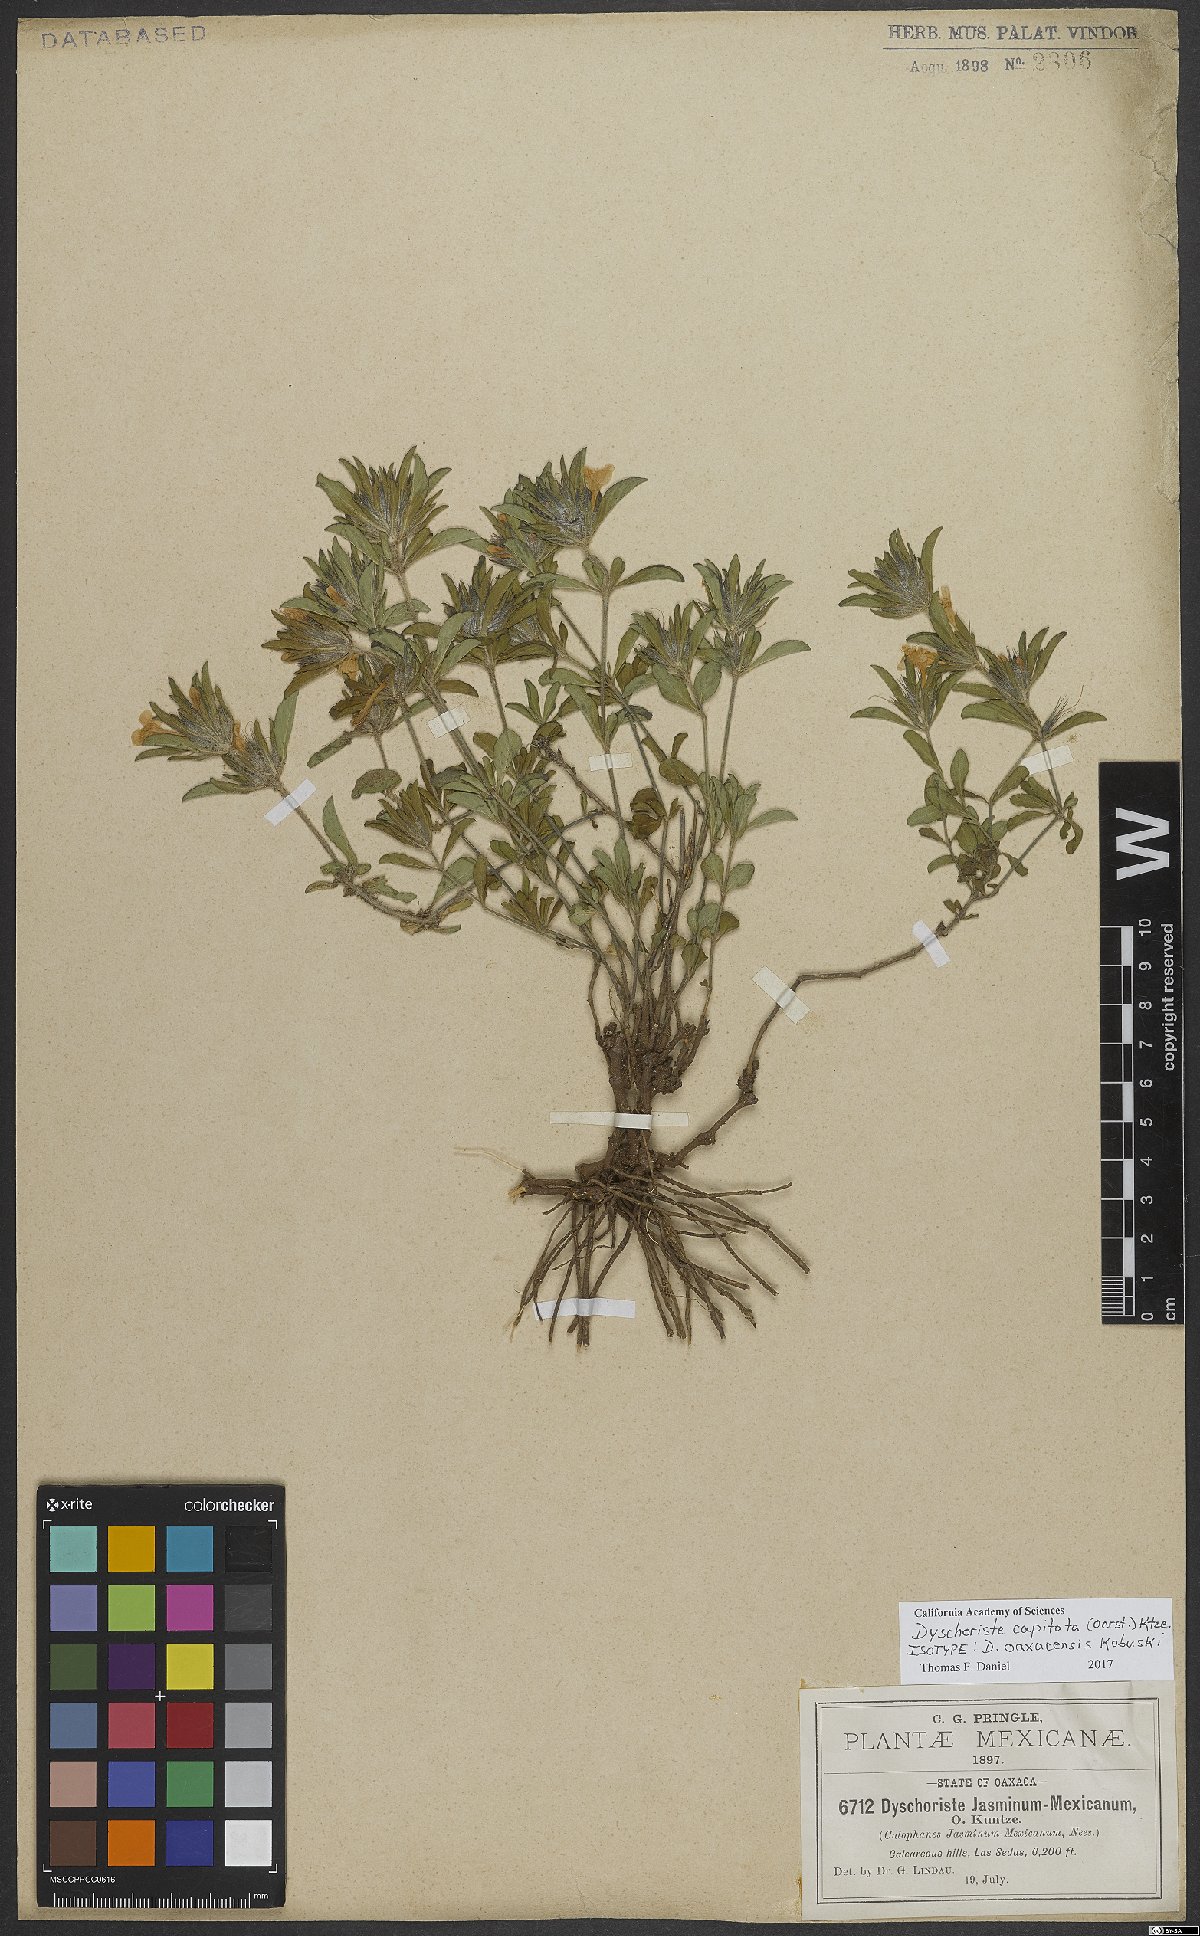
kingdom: Plantae
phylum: Tracheophyta
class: Magnoliopsida
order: Lamiales
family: Acanthaceae
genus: Dyschoriste
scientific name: Dyschoriste capitata
